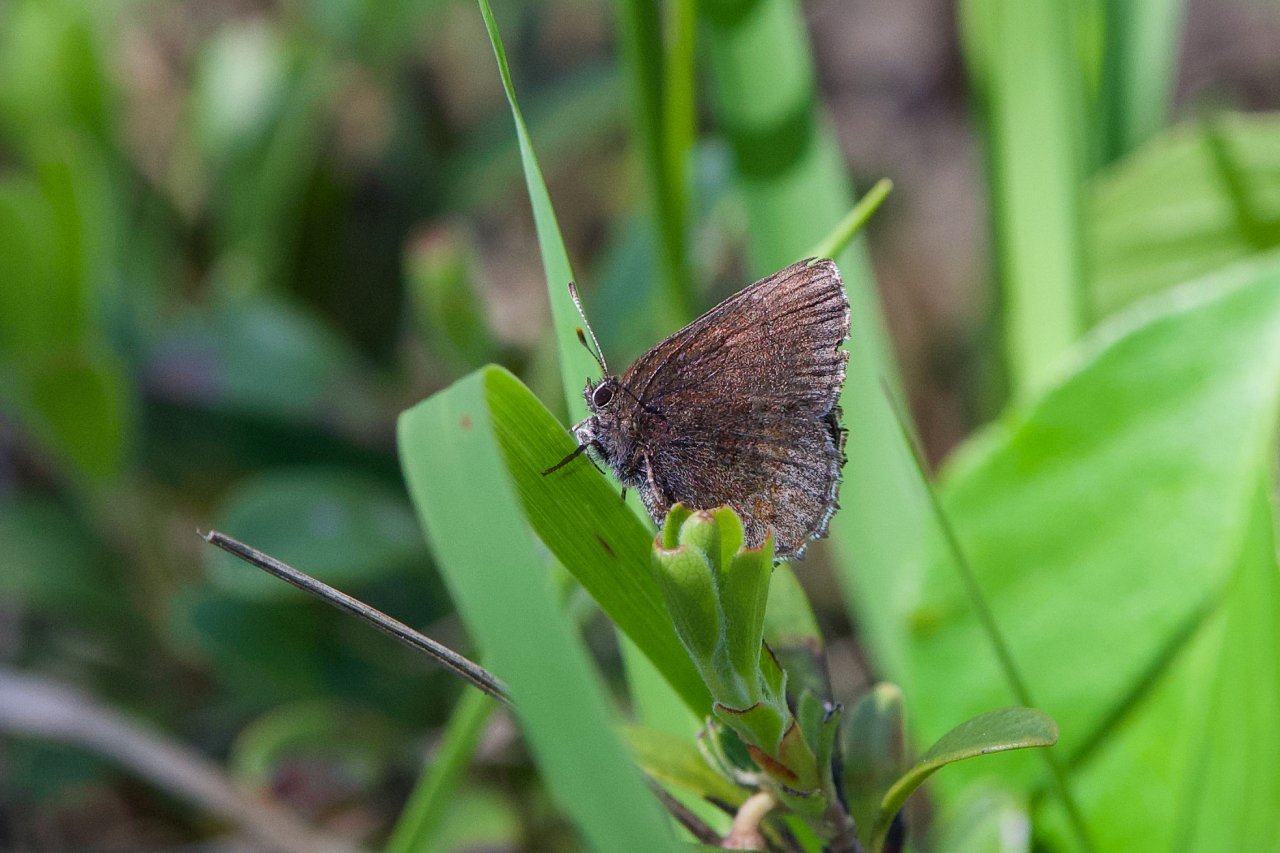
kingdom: Animalia
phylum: Arthropoda
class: Insecta
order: Lepidoptera
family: Lycaenidae
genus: Callophrys
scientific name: Callophrys polios
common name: Hoary Elfin
